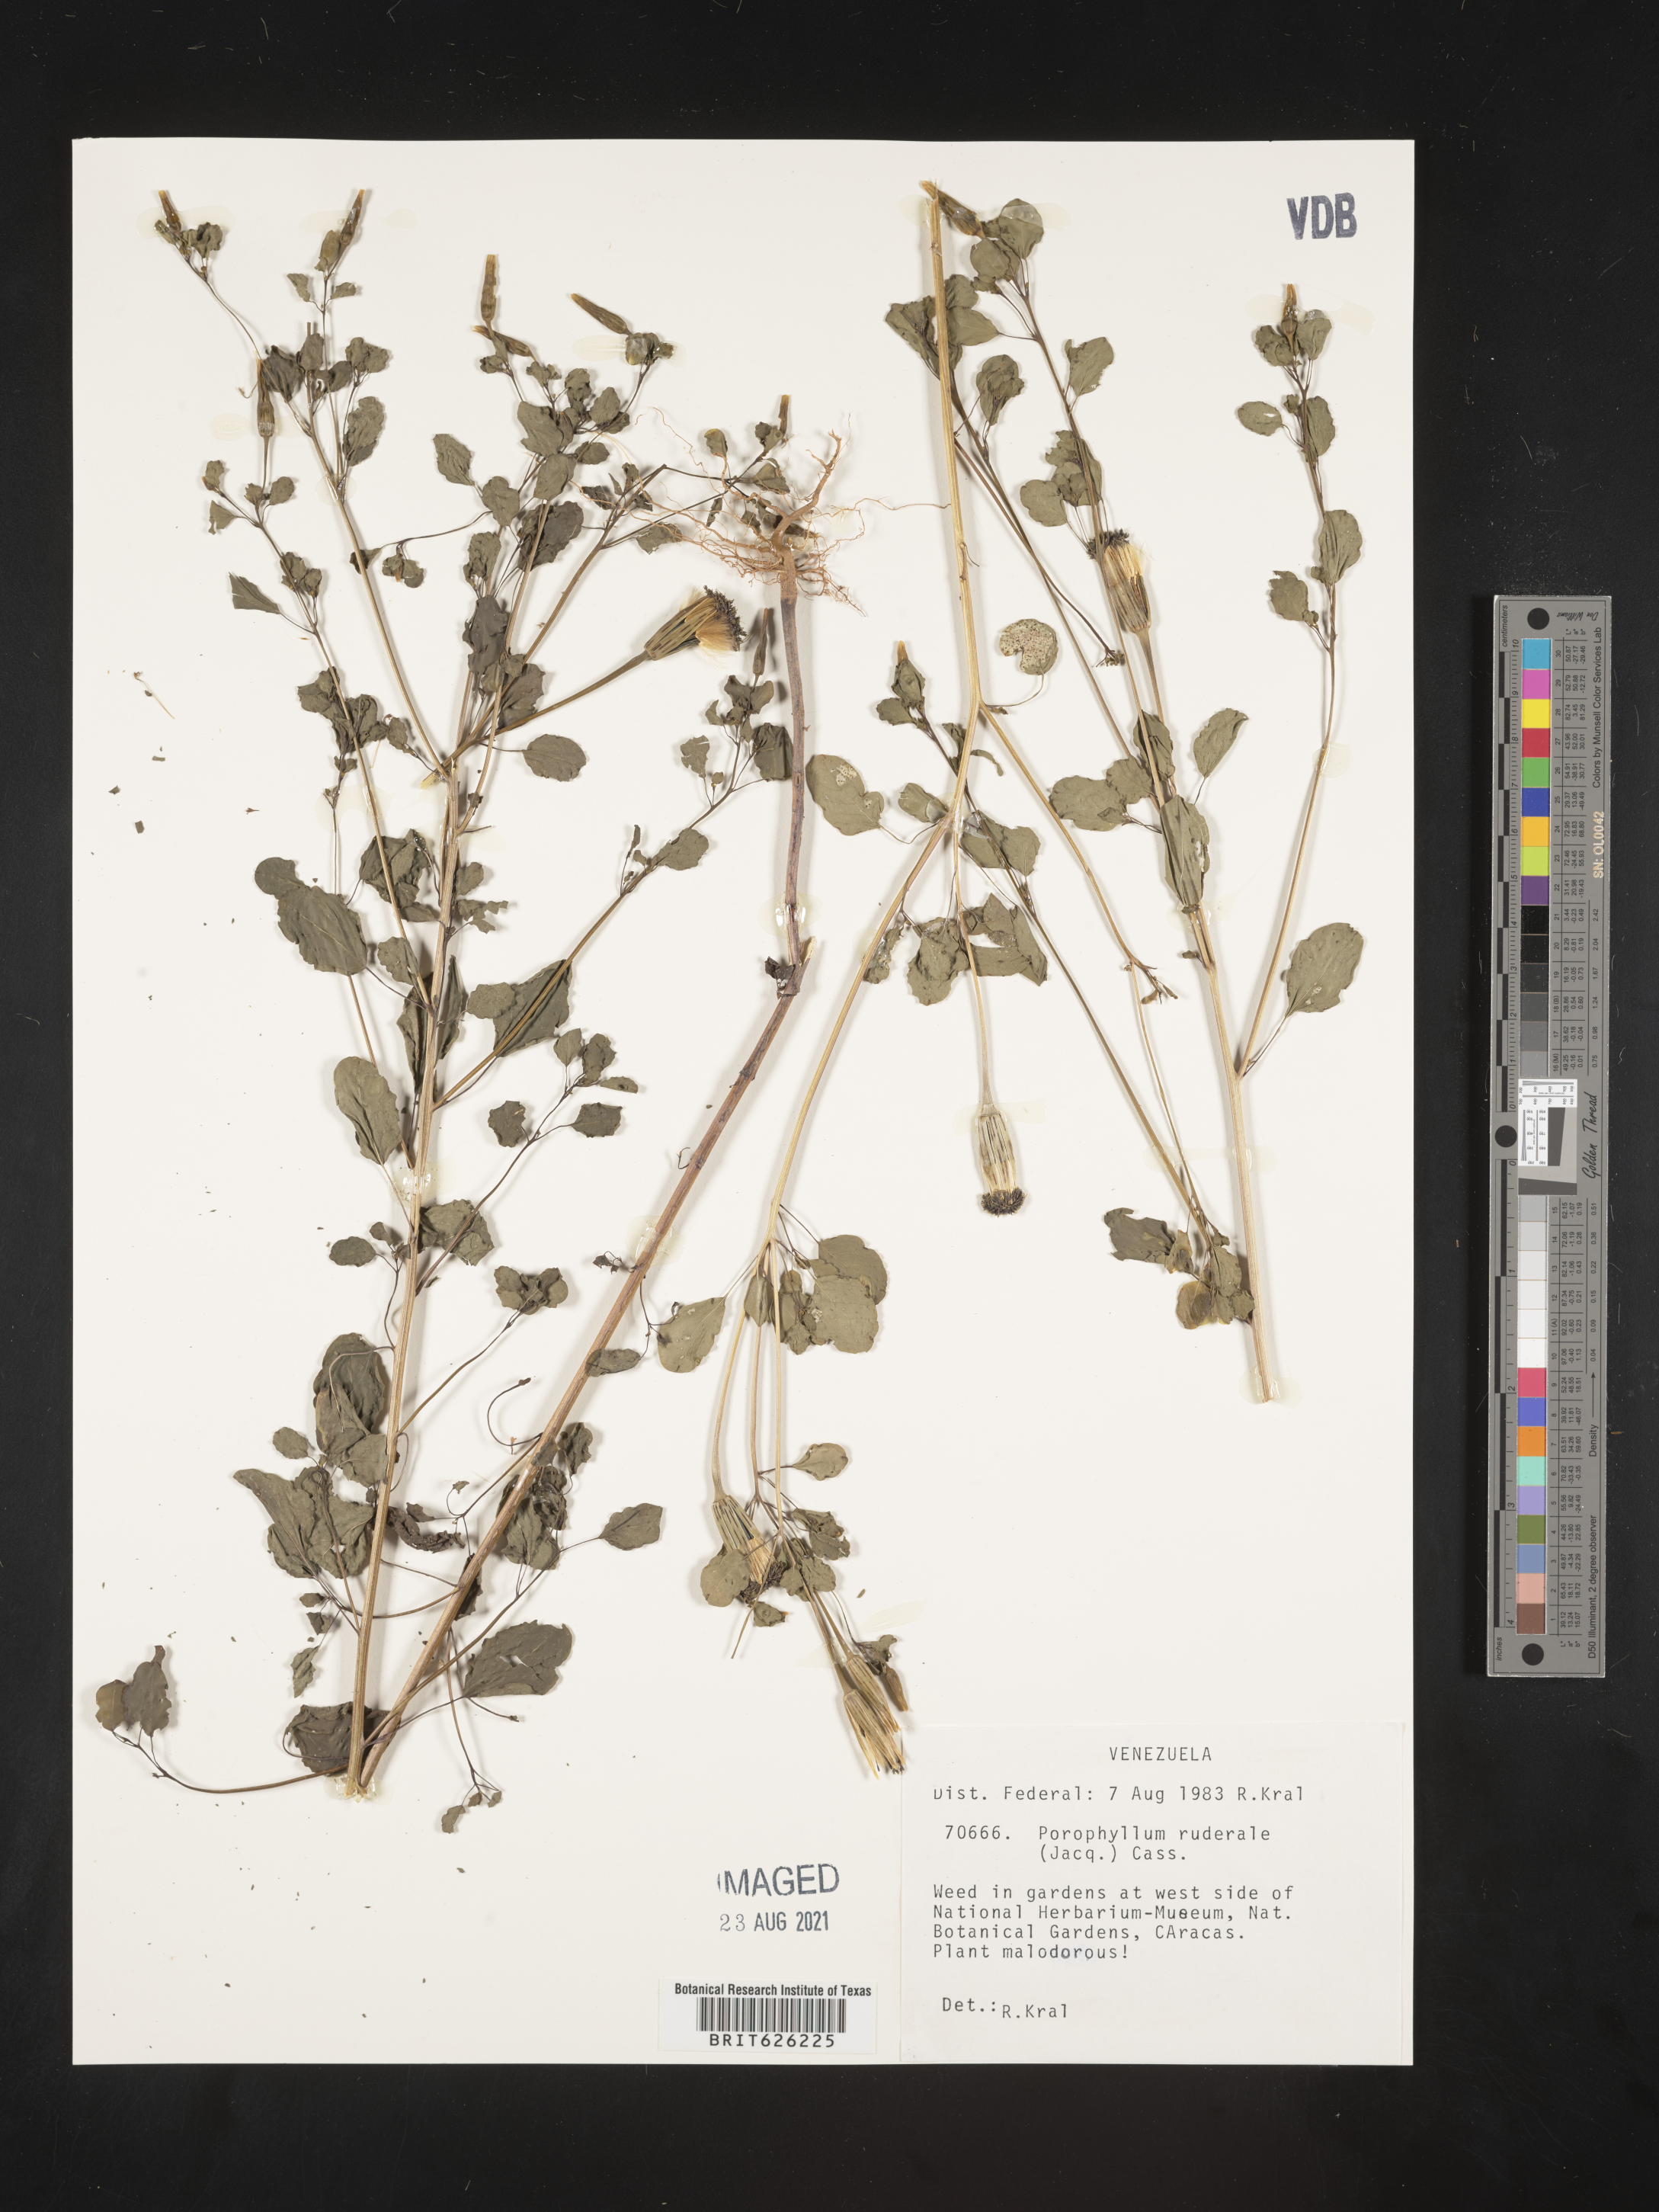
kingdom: Plantae
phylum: Tracheophyta
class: Magnoliopsida
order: Asterales
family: Asteraceae
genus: Porophyllum
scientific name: Porophyllum ruderale
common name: Yerba porosa
